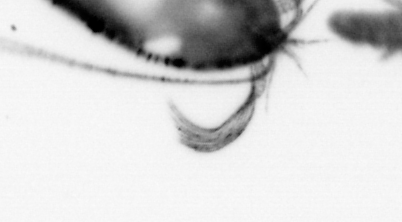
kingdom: Animalia
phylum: Annelida
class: Polychaeta
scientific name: Polychaeta
